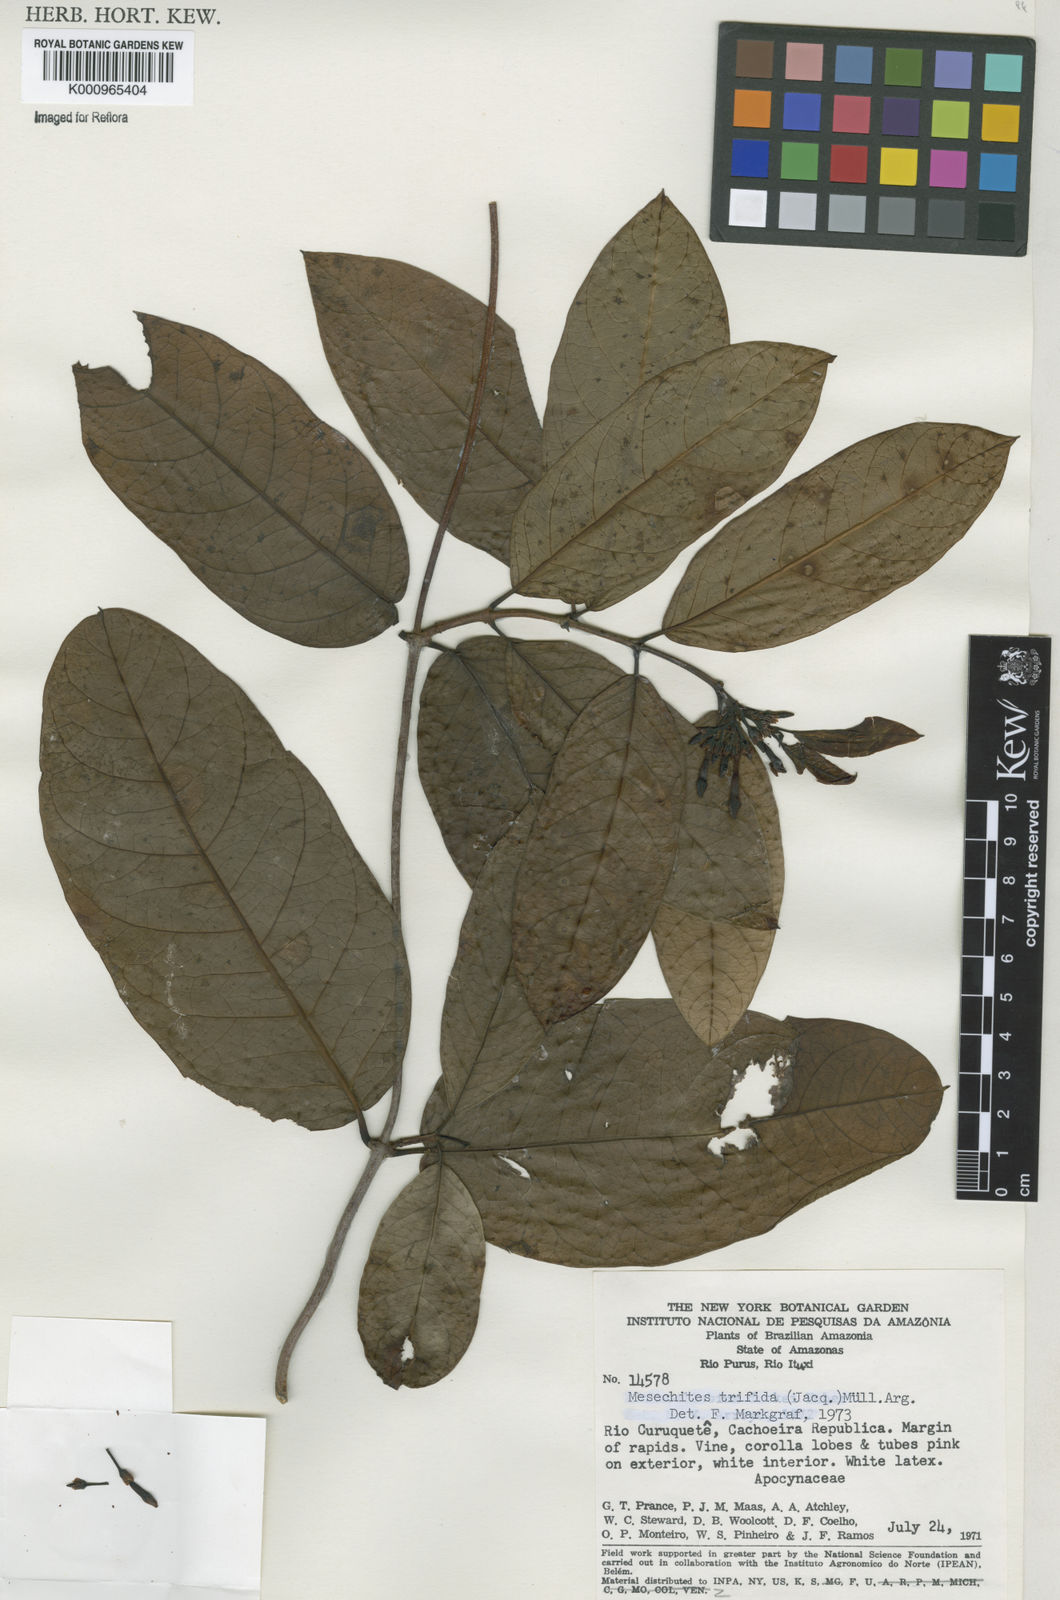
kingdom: Plantae
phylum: Tracheophyta
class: Magnoliopsida
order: Gentianales
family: Apocynaceae
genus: Mesechites
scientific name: Mesechites
